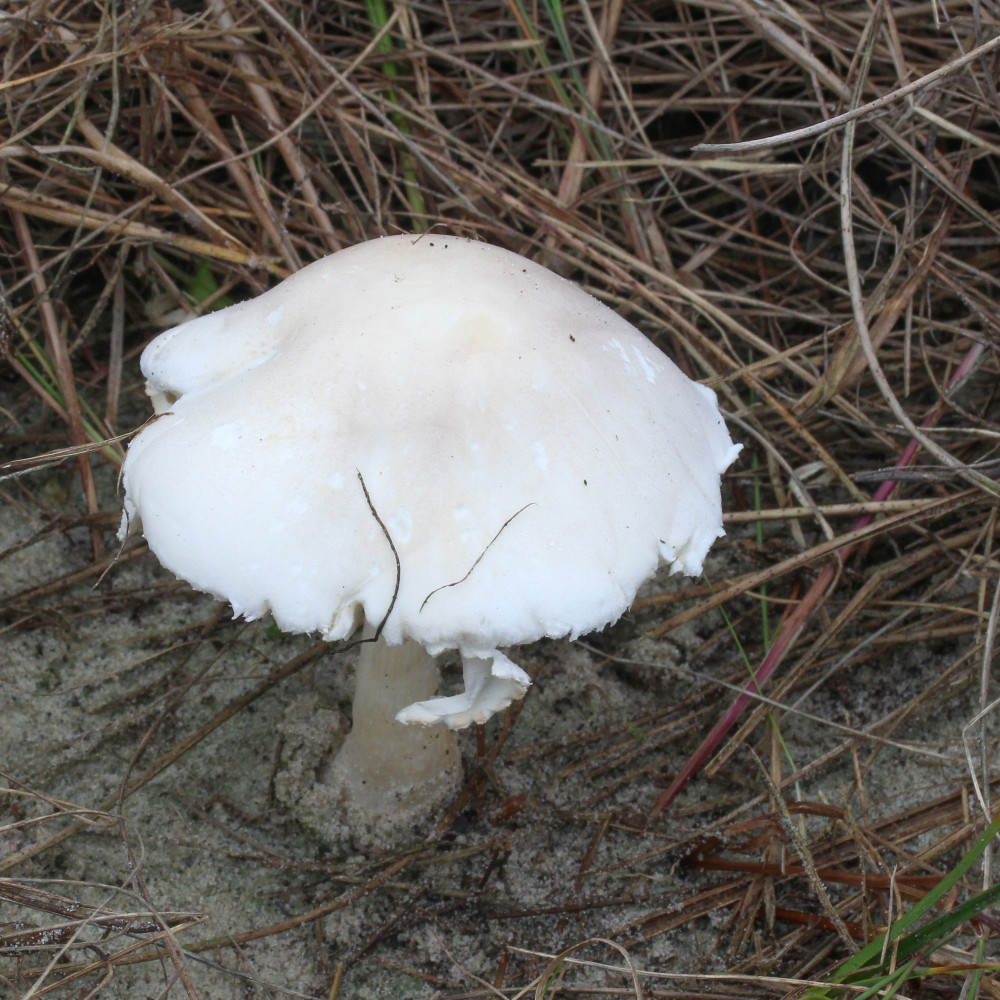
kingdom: Fungi
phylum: Basidiomycota
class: Agaricomycetes
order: Agaricales
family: Agaricaceae
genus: Leucoagaricus
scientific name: Leucoagaricus leucothites
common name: rosabladet silkehat
